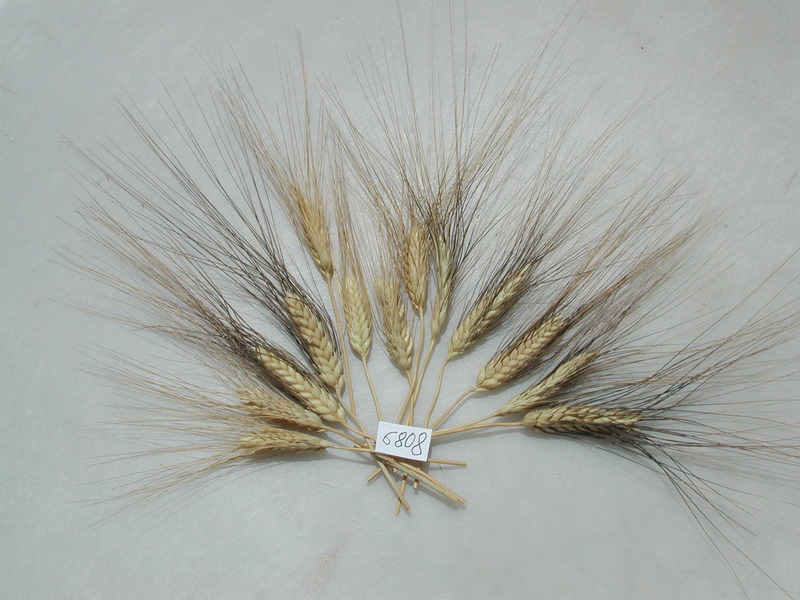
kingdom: Plantae
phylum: Tracheophyta
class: Liliopsida
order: Poales
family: Poaceae
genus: Triticum
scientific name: Triticum turgidum
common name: Wheat
